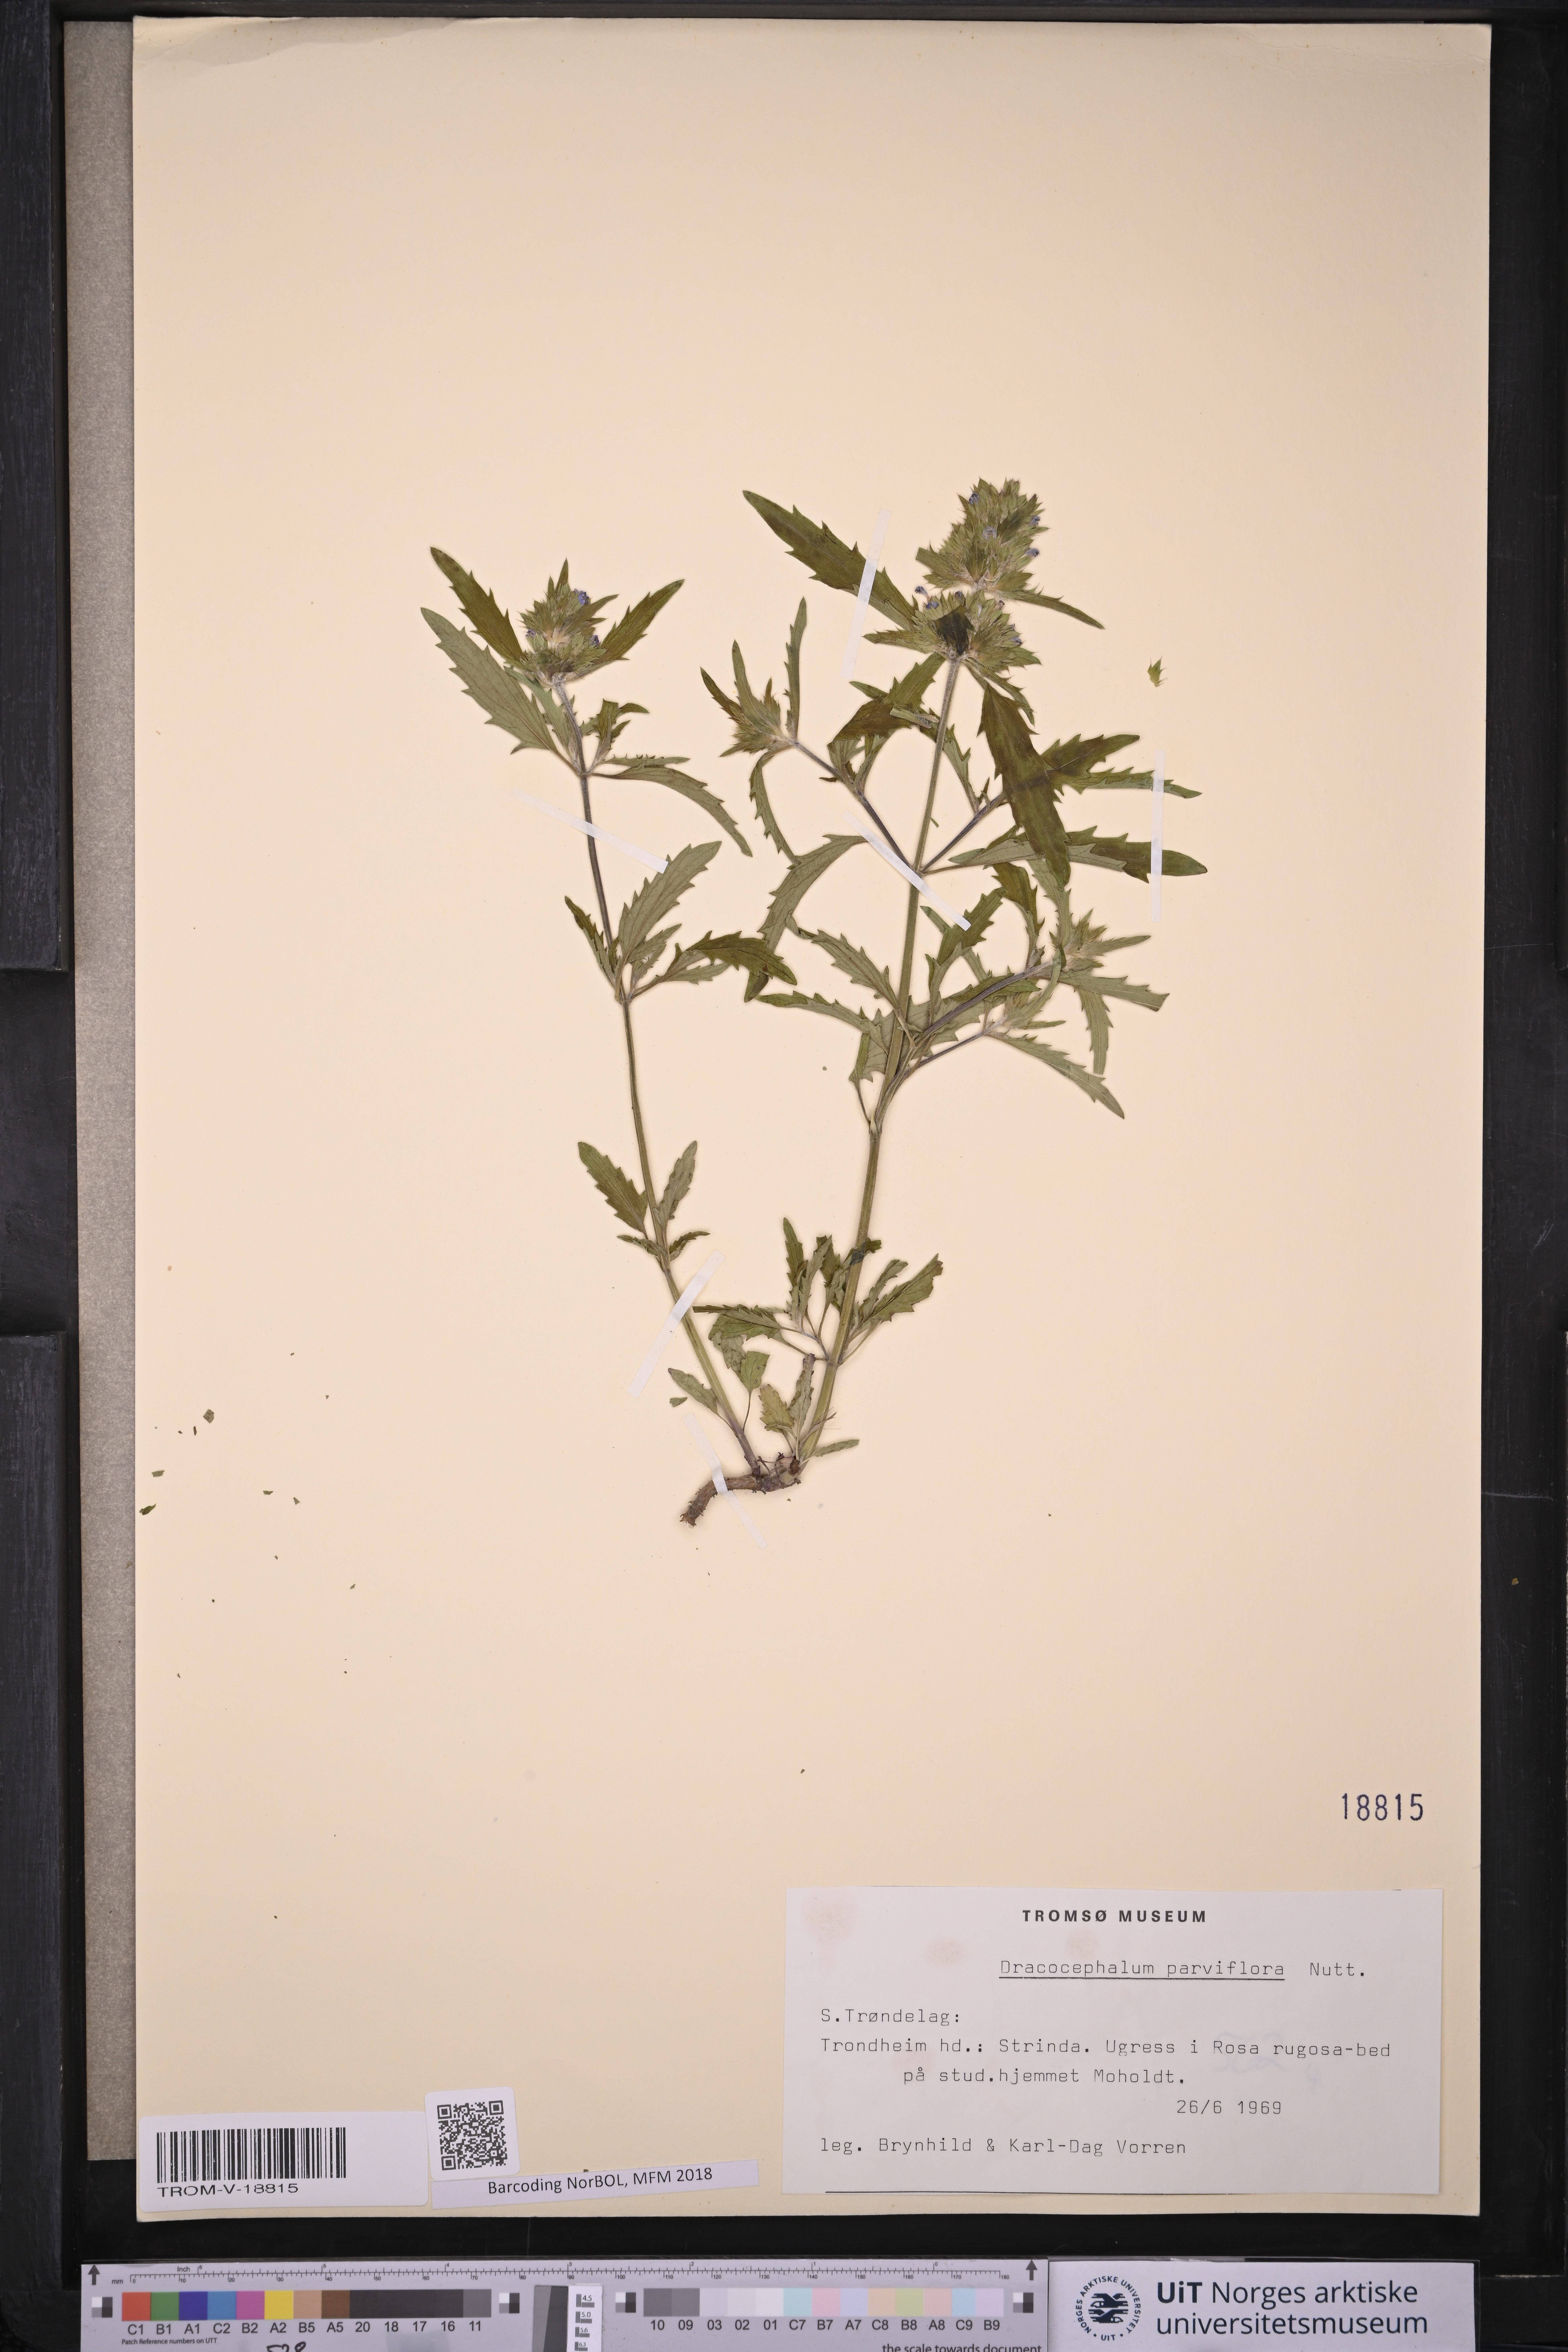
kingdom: Plantae
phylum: Tracheophyta
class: Magnoliopsida
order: Lamiales
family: Lamiaceae
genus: Dracocephalum
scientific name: Dracocephalum parviflorum
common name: American dragonhead
